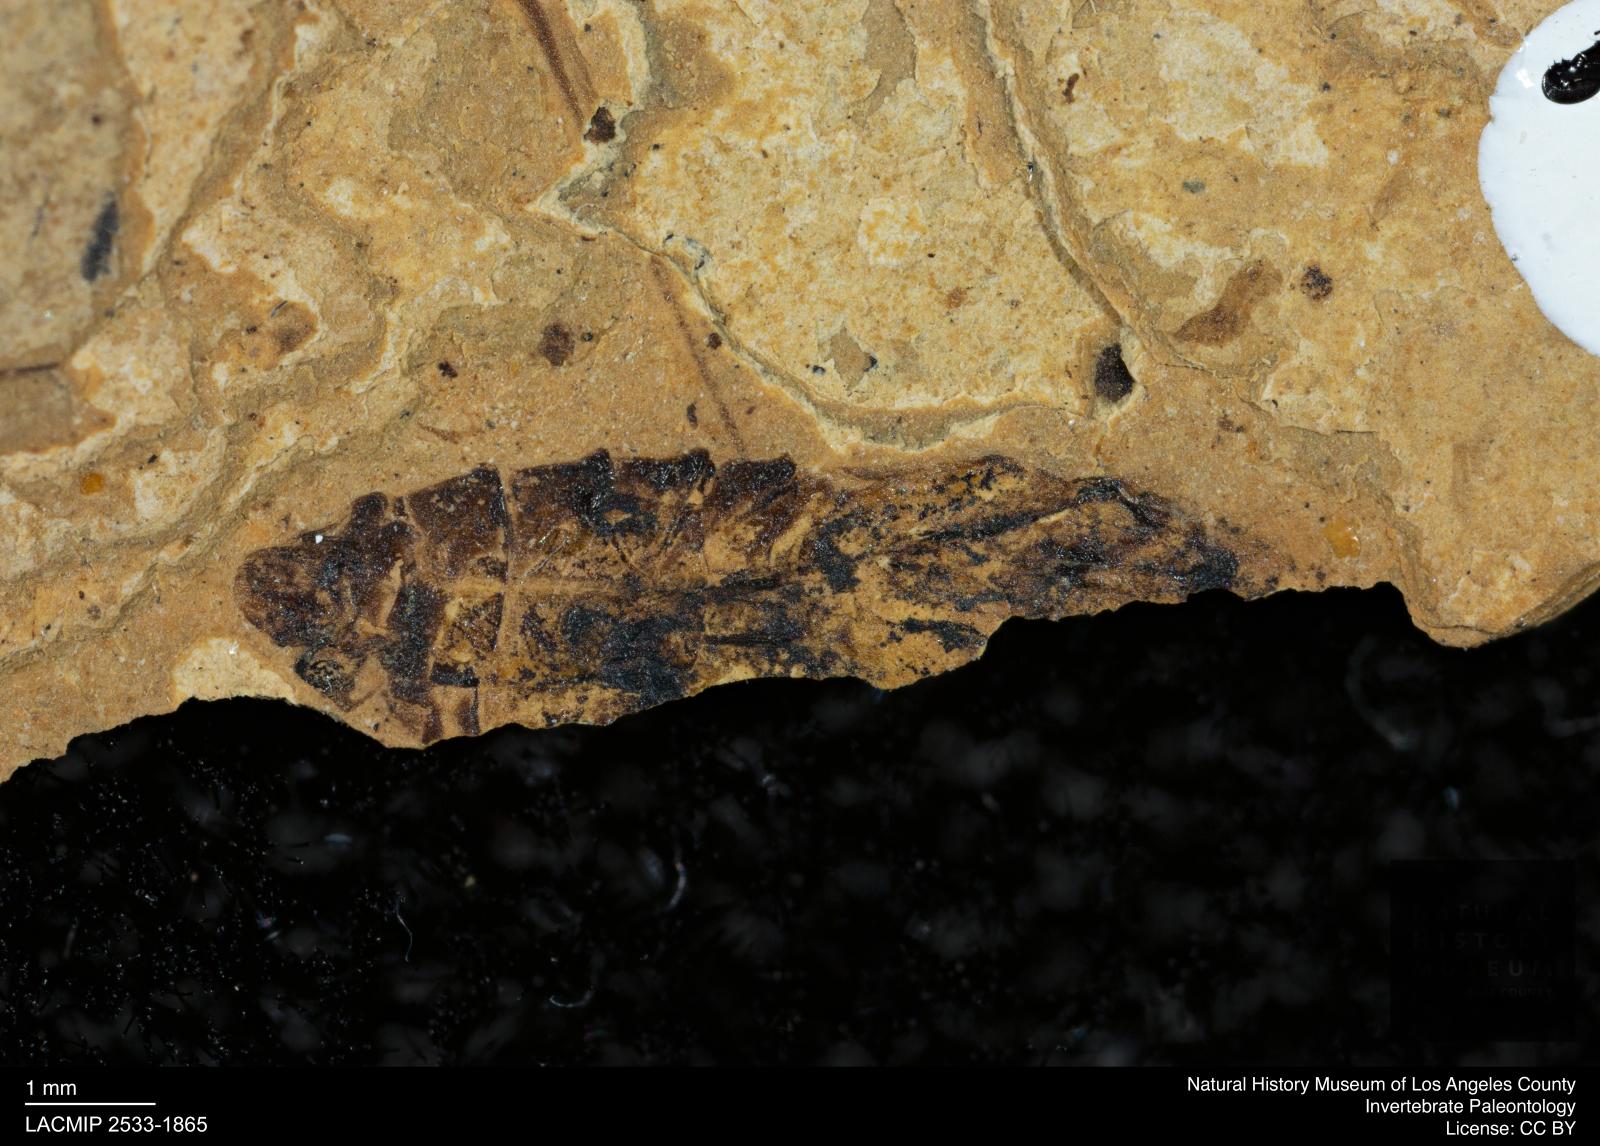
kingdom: Animalia
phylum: Arthropoda
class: Insecta
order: Hemiptera
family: Notonectidae
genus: Notonecta
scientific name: Notonecta
